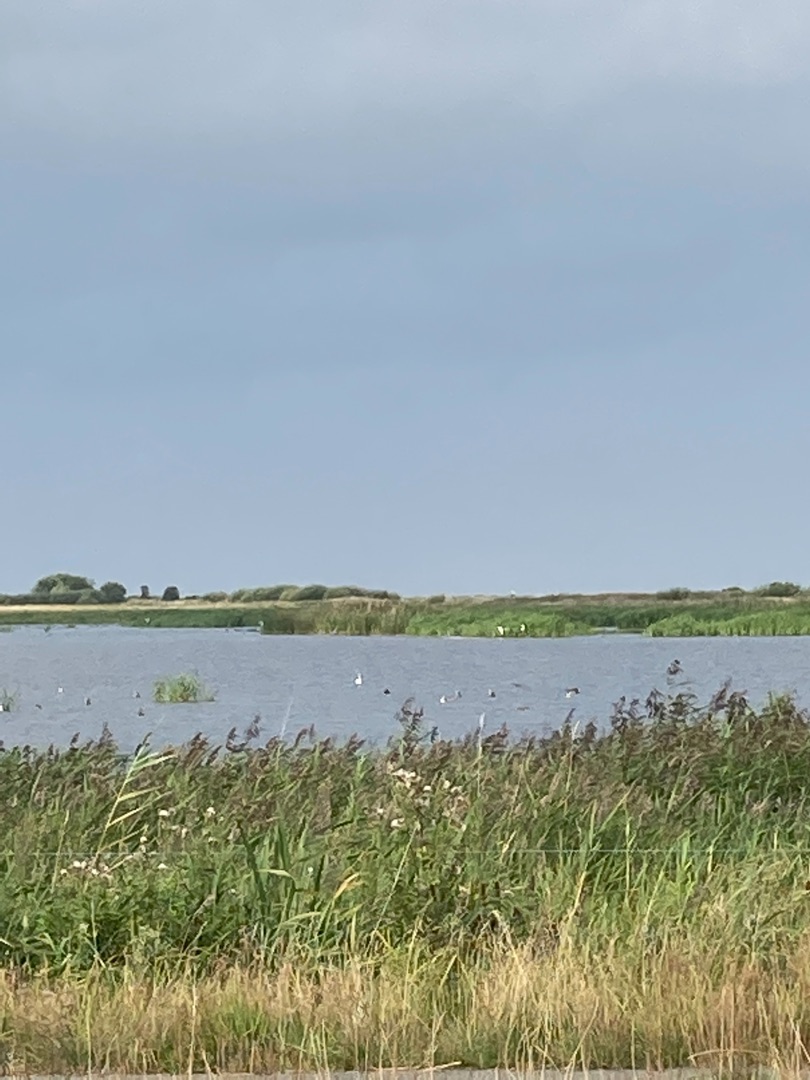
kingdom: Animalia
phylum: Chordata
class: Aves
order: Pelecaniformes
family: Ardeidae
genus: Ardea
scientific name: Ardea alba
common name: Sølvhejre
